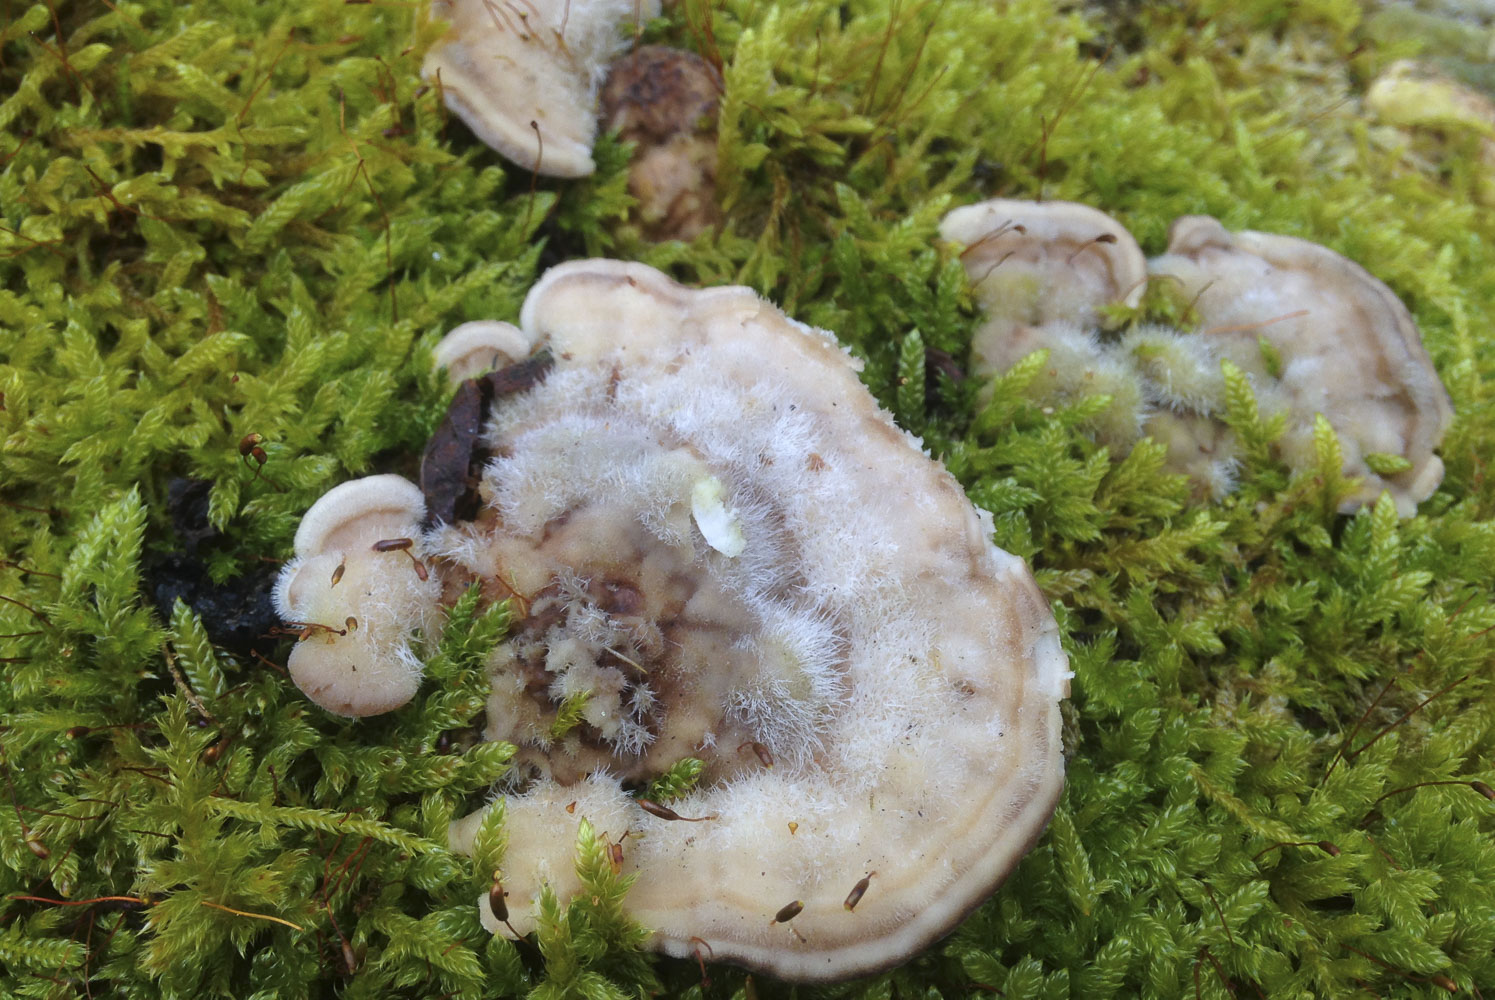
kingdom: Fungi
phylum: Basidiomycota
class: Agaricomycetes
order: Polyporales
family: Polyporaceae
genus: Trametes
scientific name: Trametes hirsuta
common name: håret læderporesvamp
